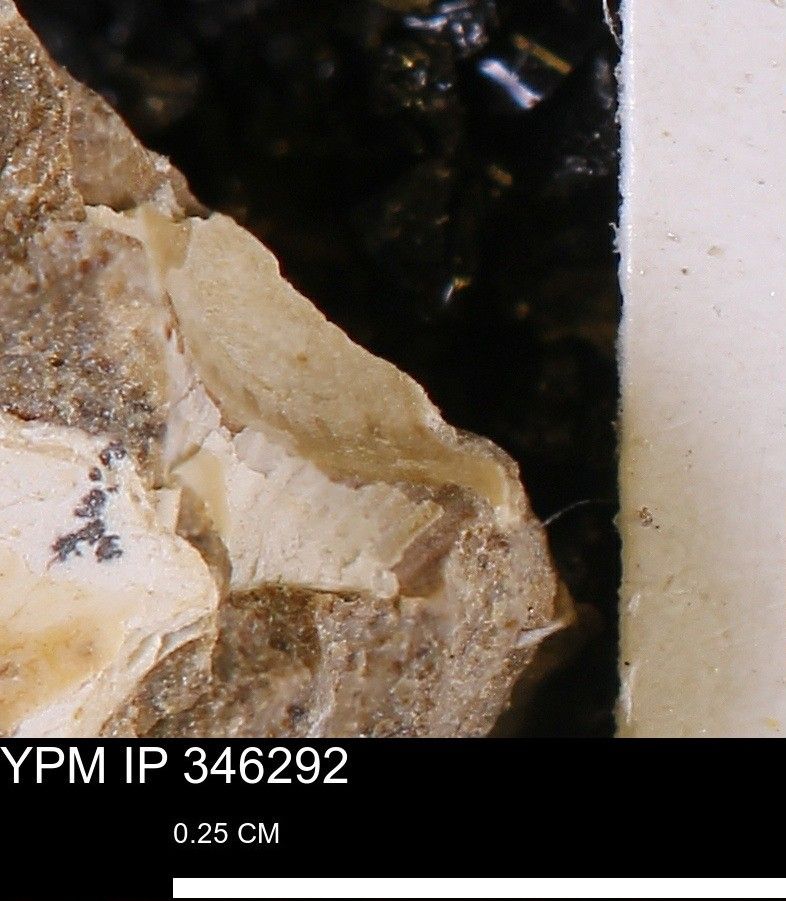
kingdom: Animalia
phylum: Mollusca
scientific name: Mollusca
